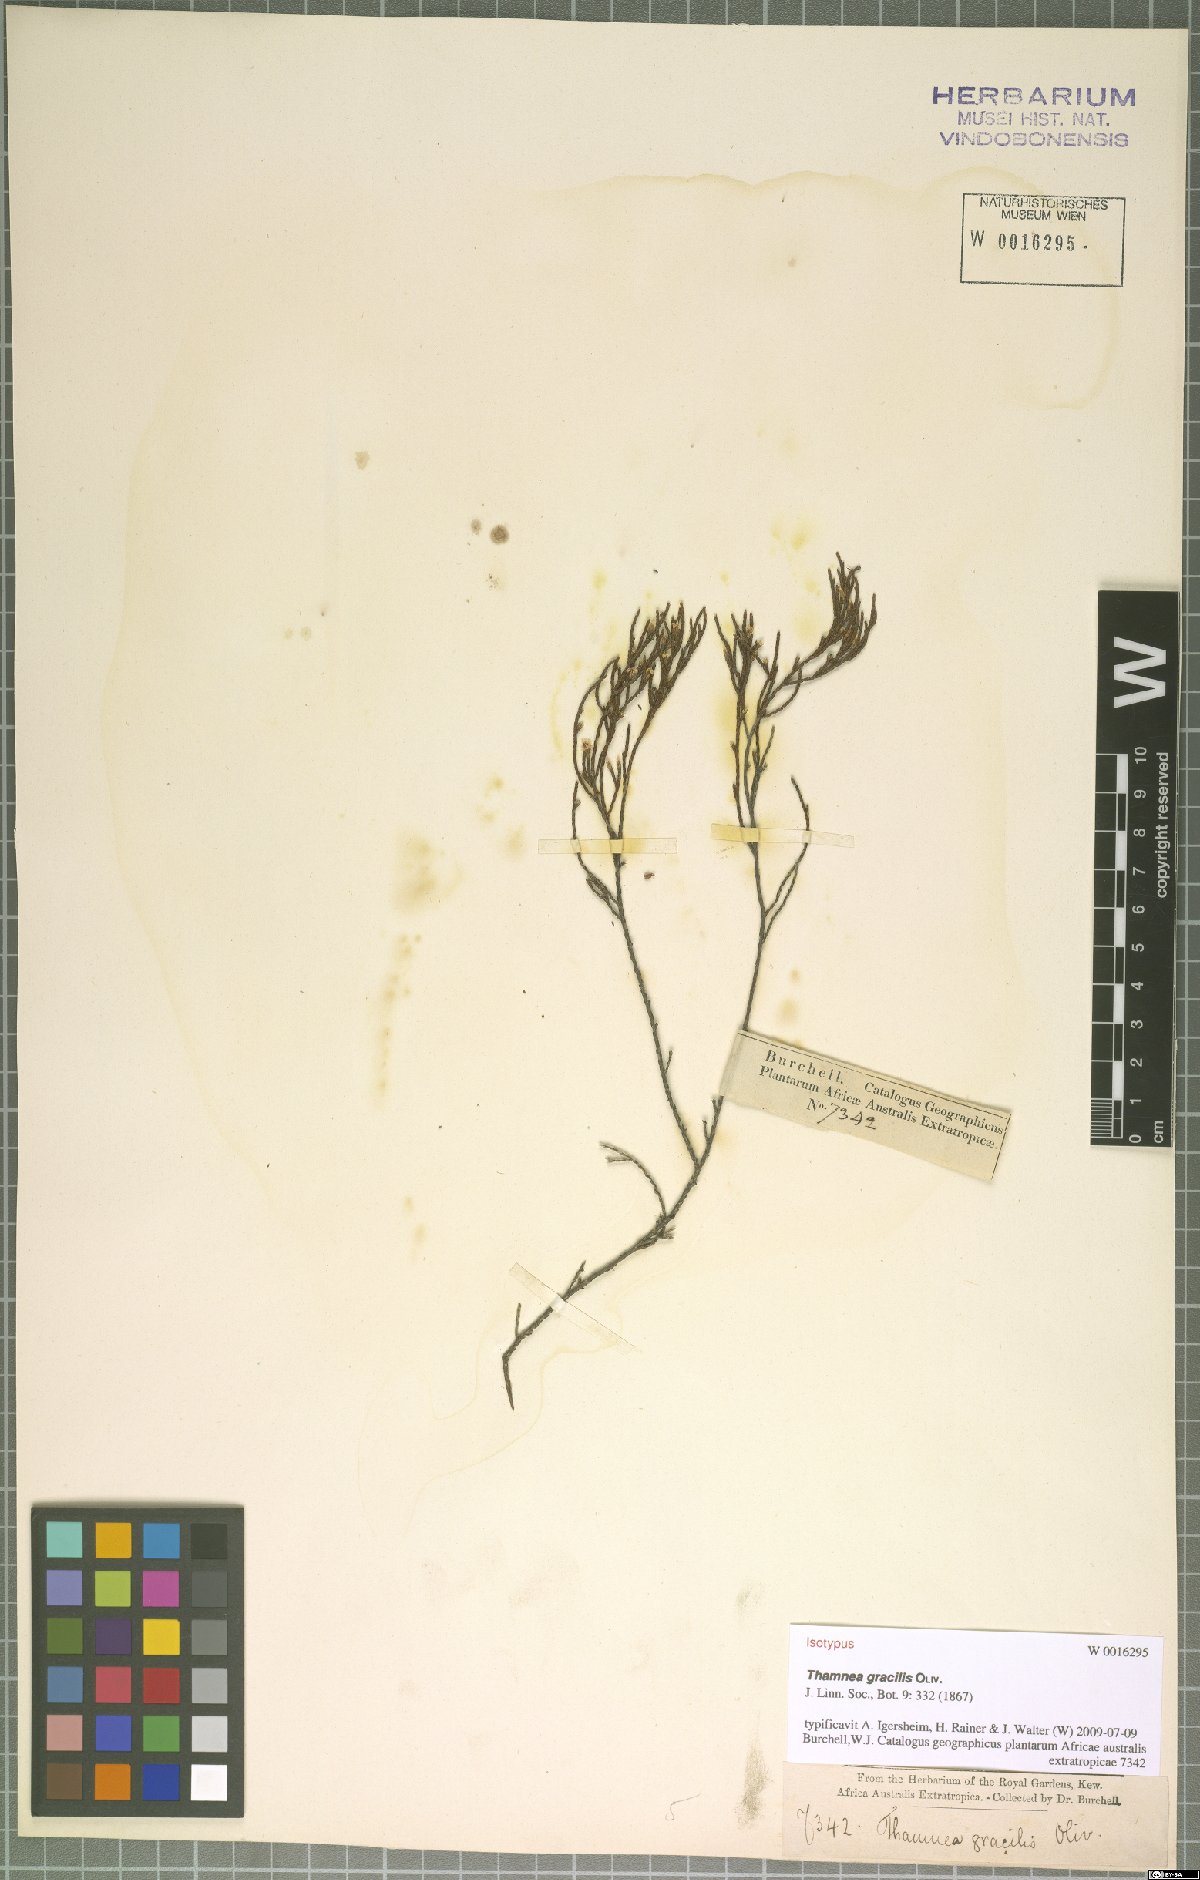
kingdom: Plantae
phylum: Tracheophyta
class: Magnoliopsida
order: Bruniales
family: Bruniaceae
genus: Thamnea
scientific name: Thamnea gracilis
